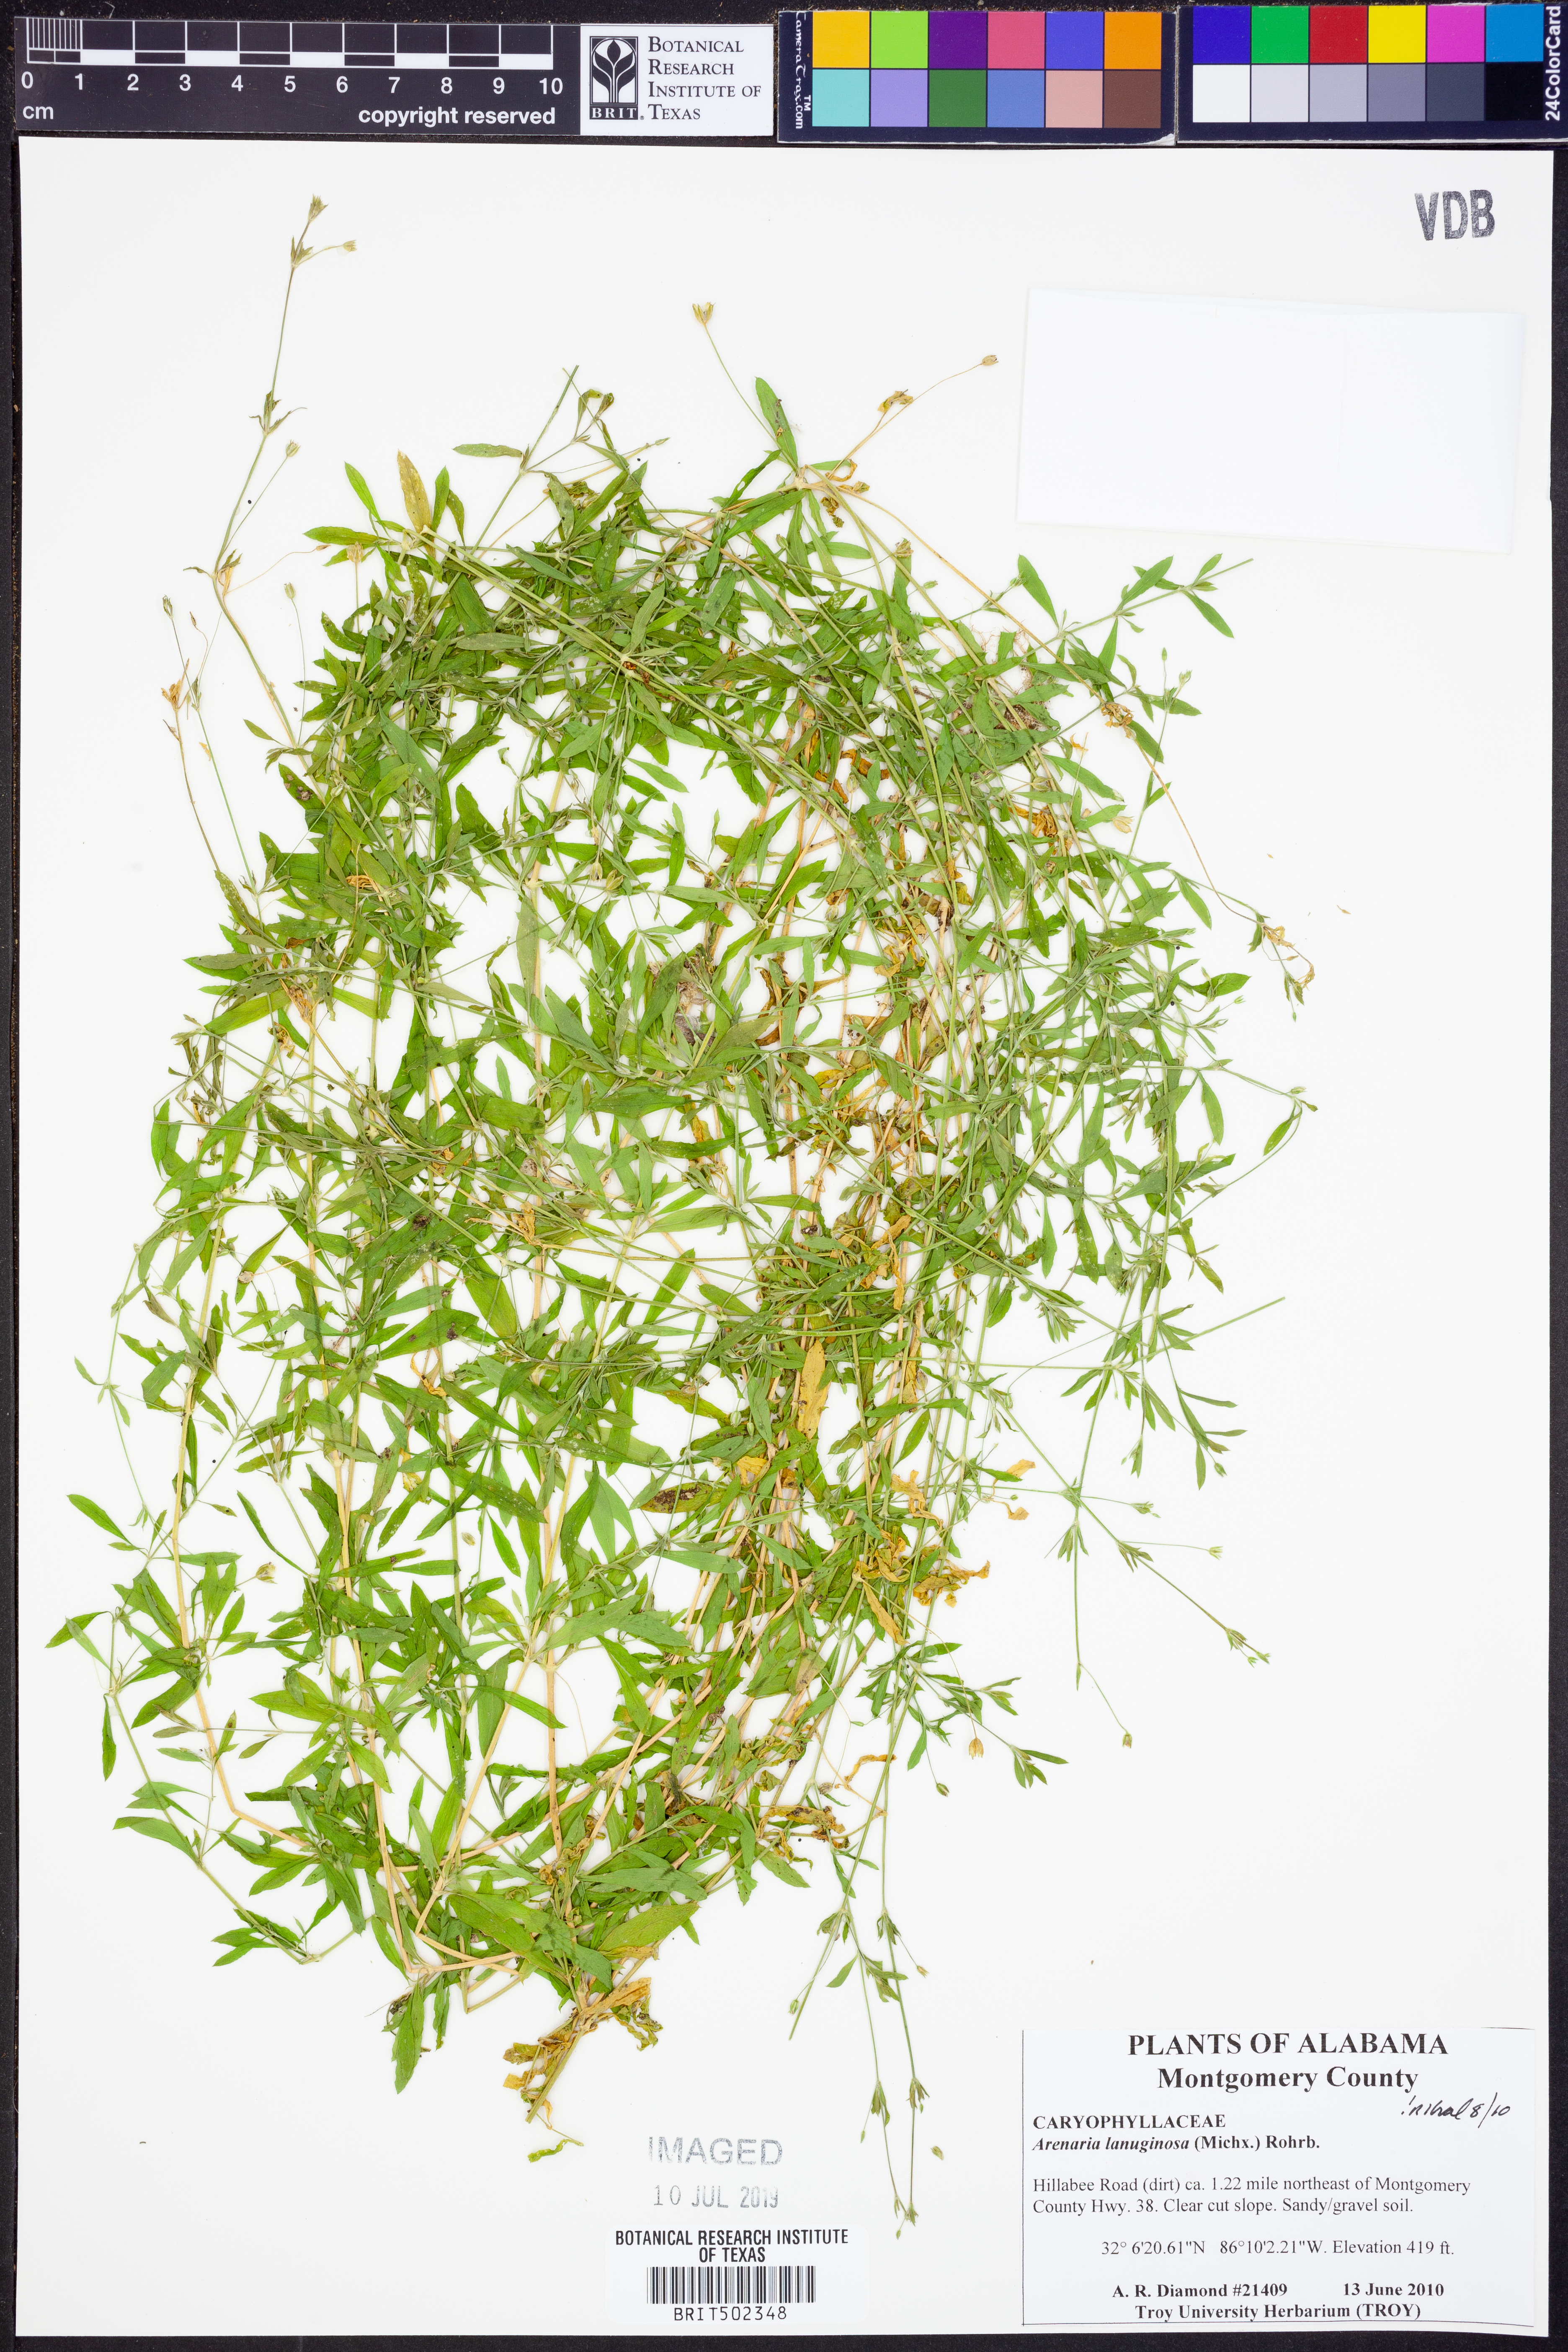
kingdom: Plantae
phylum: Tracheophyta
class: Magnoliopsida
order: Caryophyllales
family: Caryophyllaceae
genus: Arenaria
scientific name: Arenaria lanuginosa
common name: Spread sandwort
